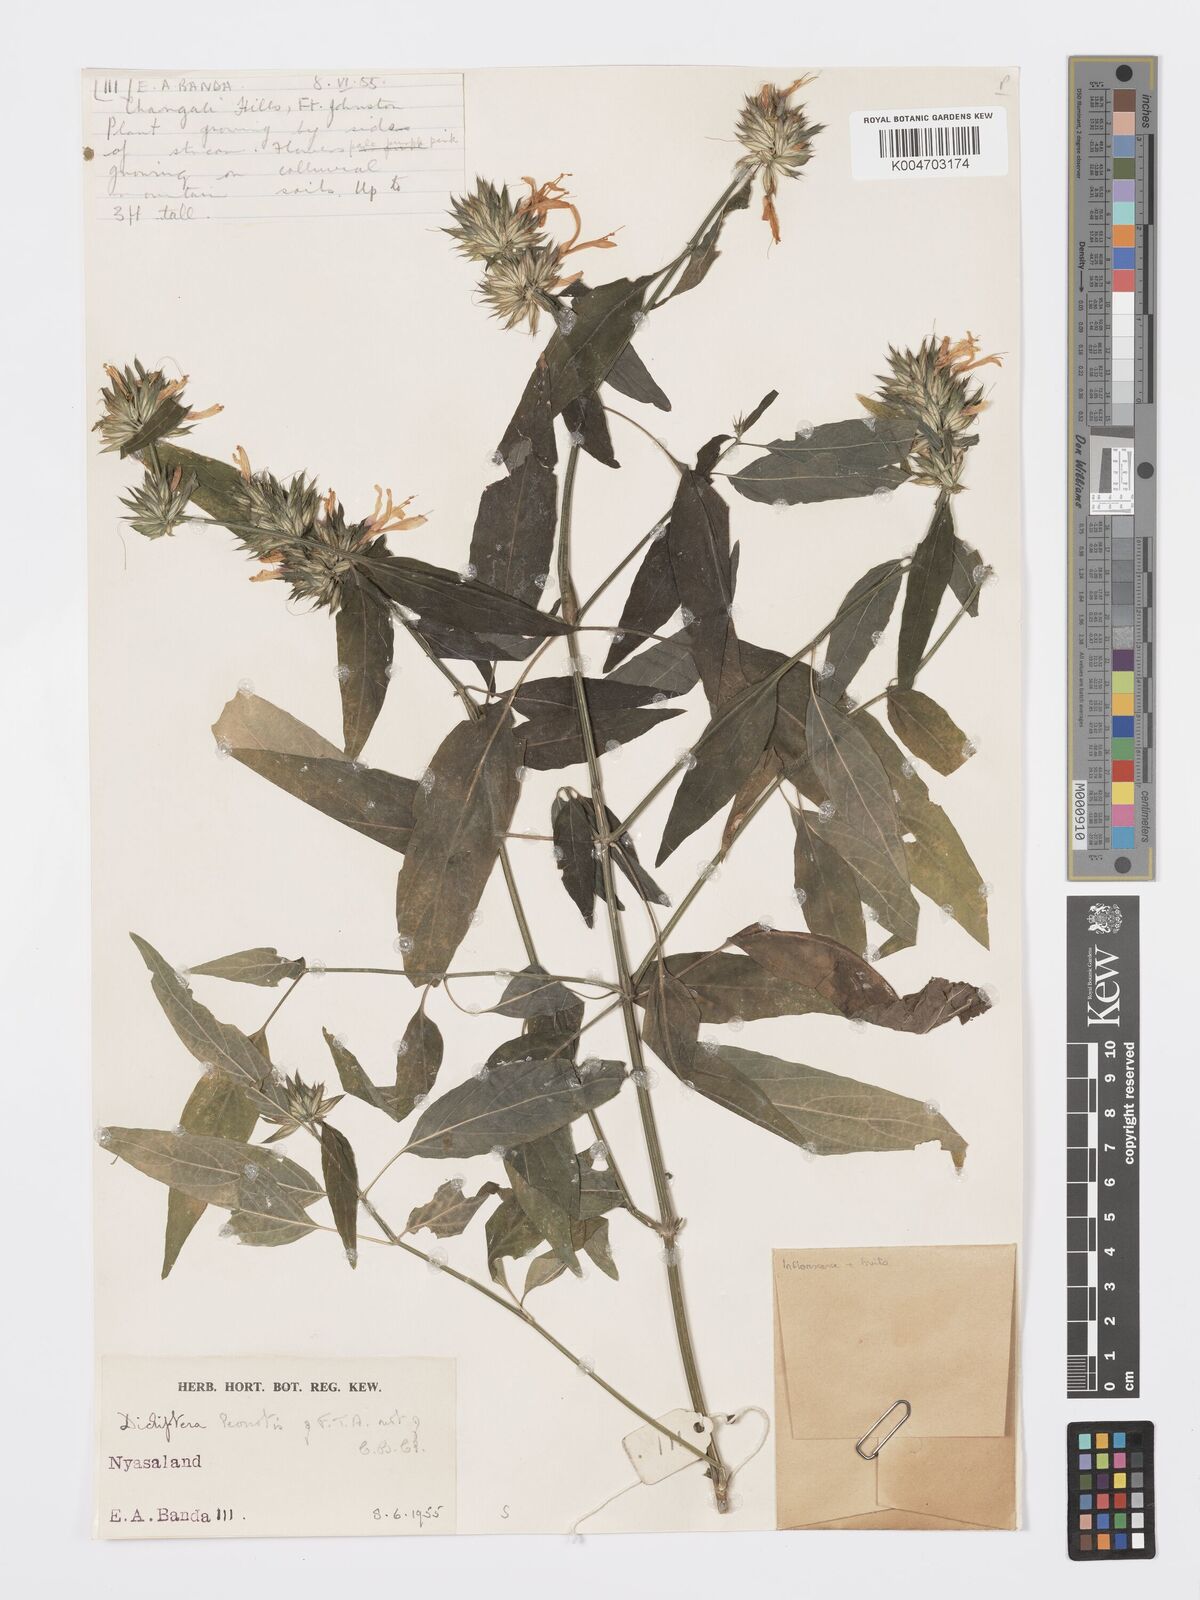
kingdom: Plantae
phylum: Tracheophyta
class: Magnoliopsida
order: Lamiales
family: Acanthaceae
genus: Dicliptera
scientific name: Dicliptera clinopodia
